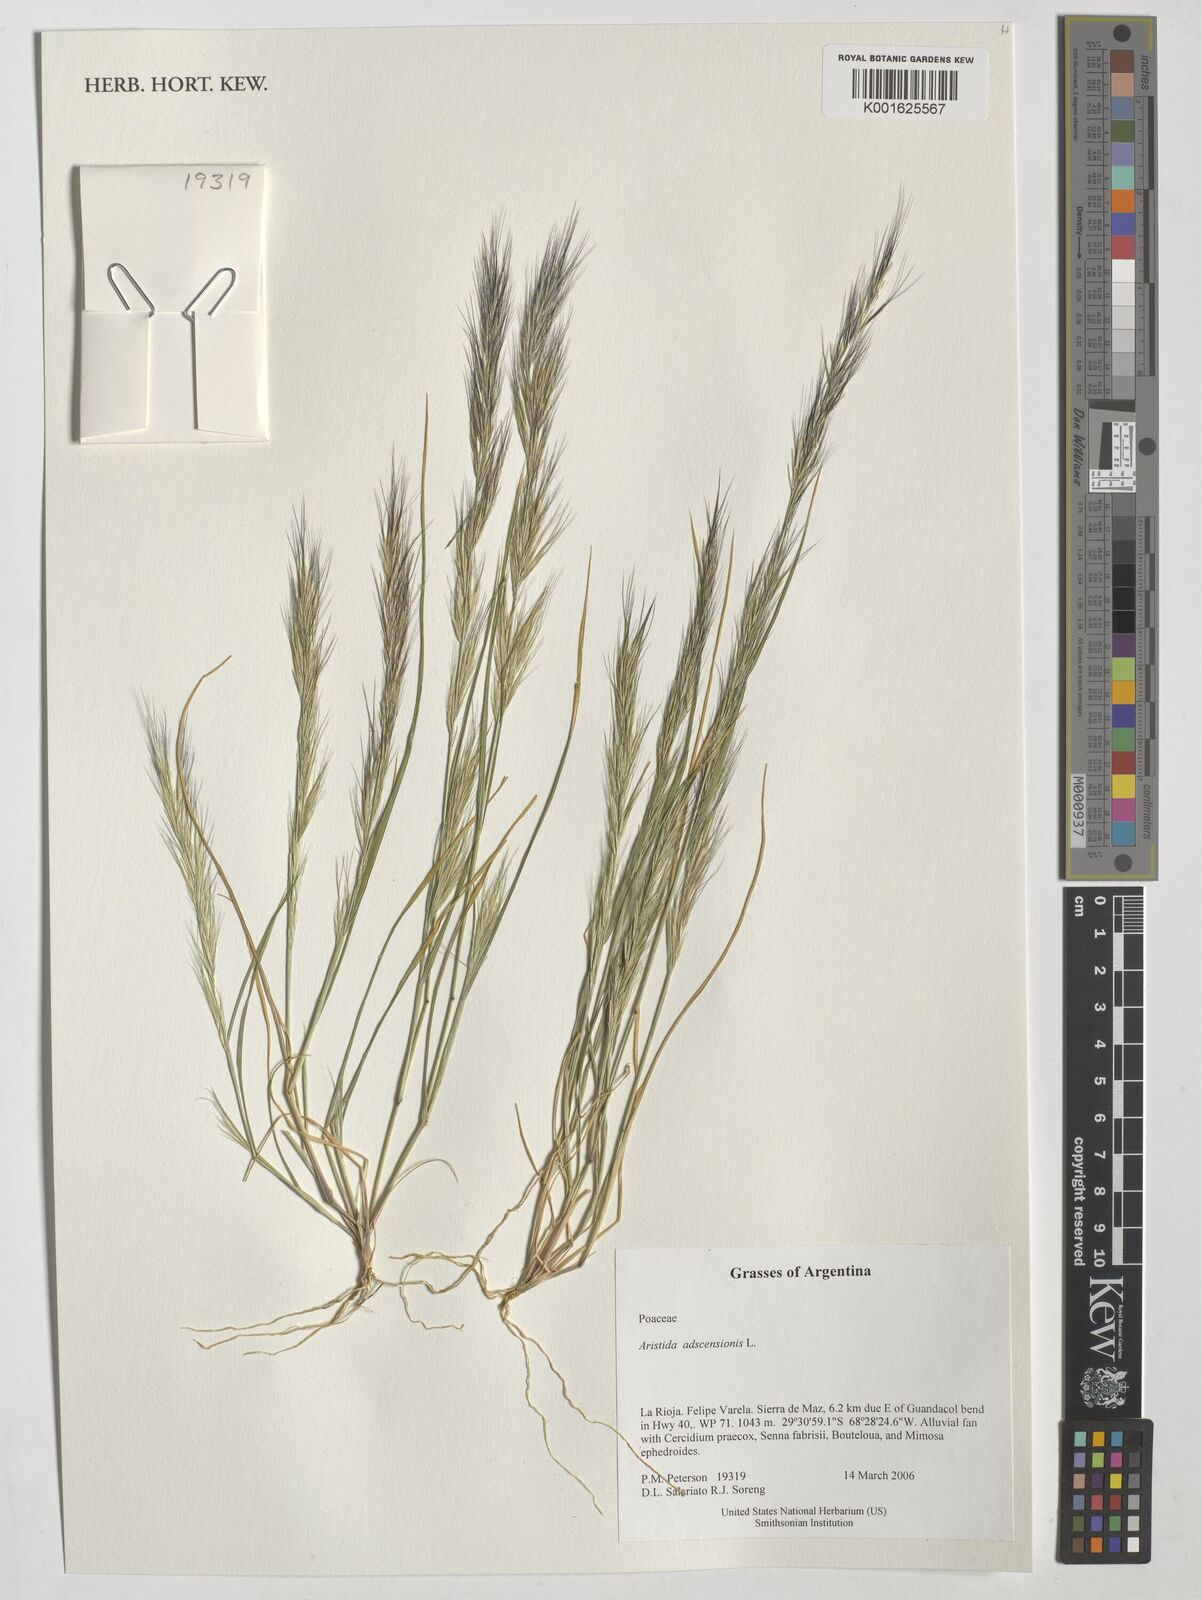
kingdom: Plantae
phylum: Tracheophyta
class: Liliopsida
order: Poales
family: Poaceae
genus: Aristida
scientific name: Aristida adscensionis
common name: Sixweeks threeawn
